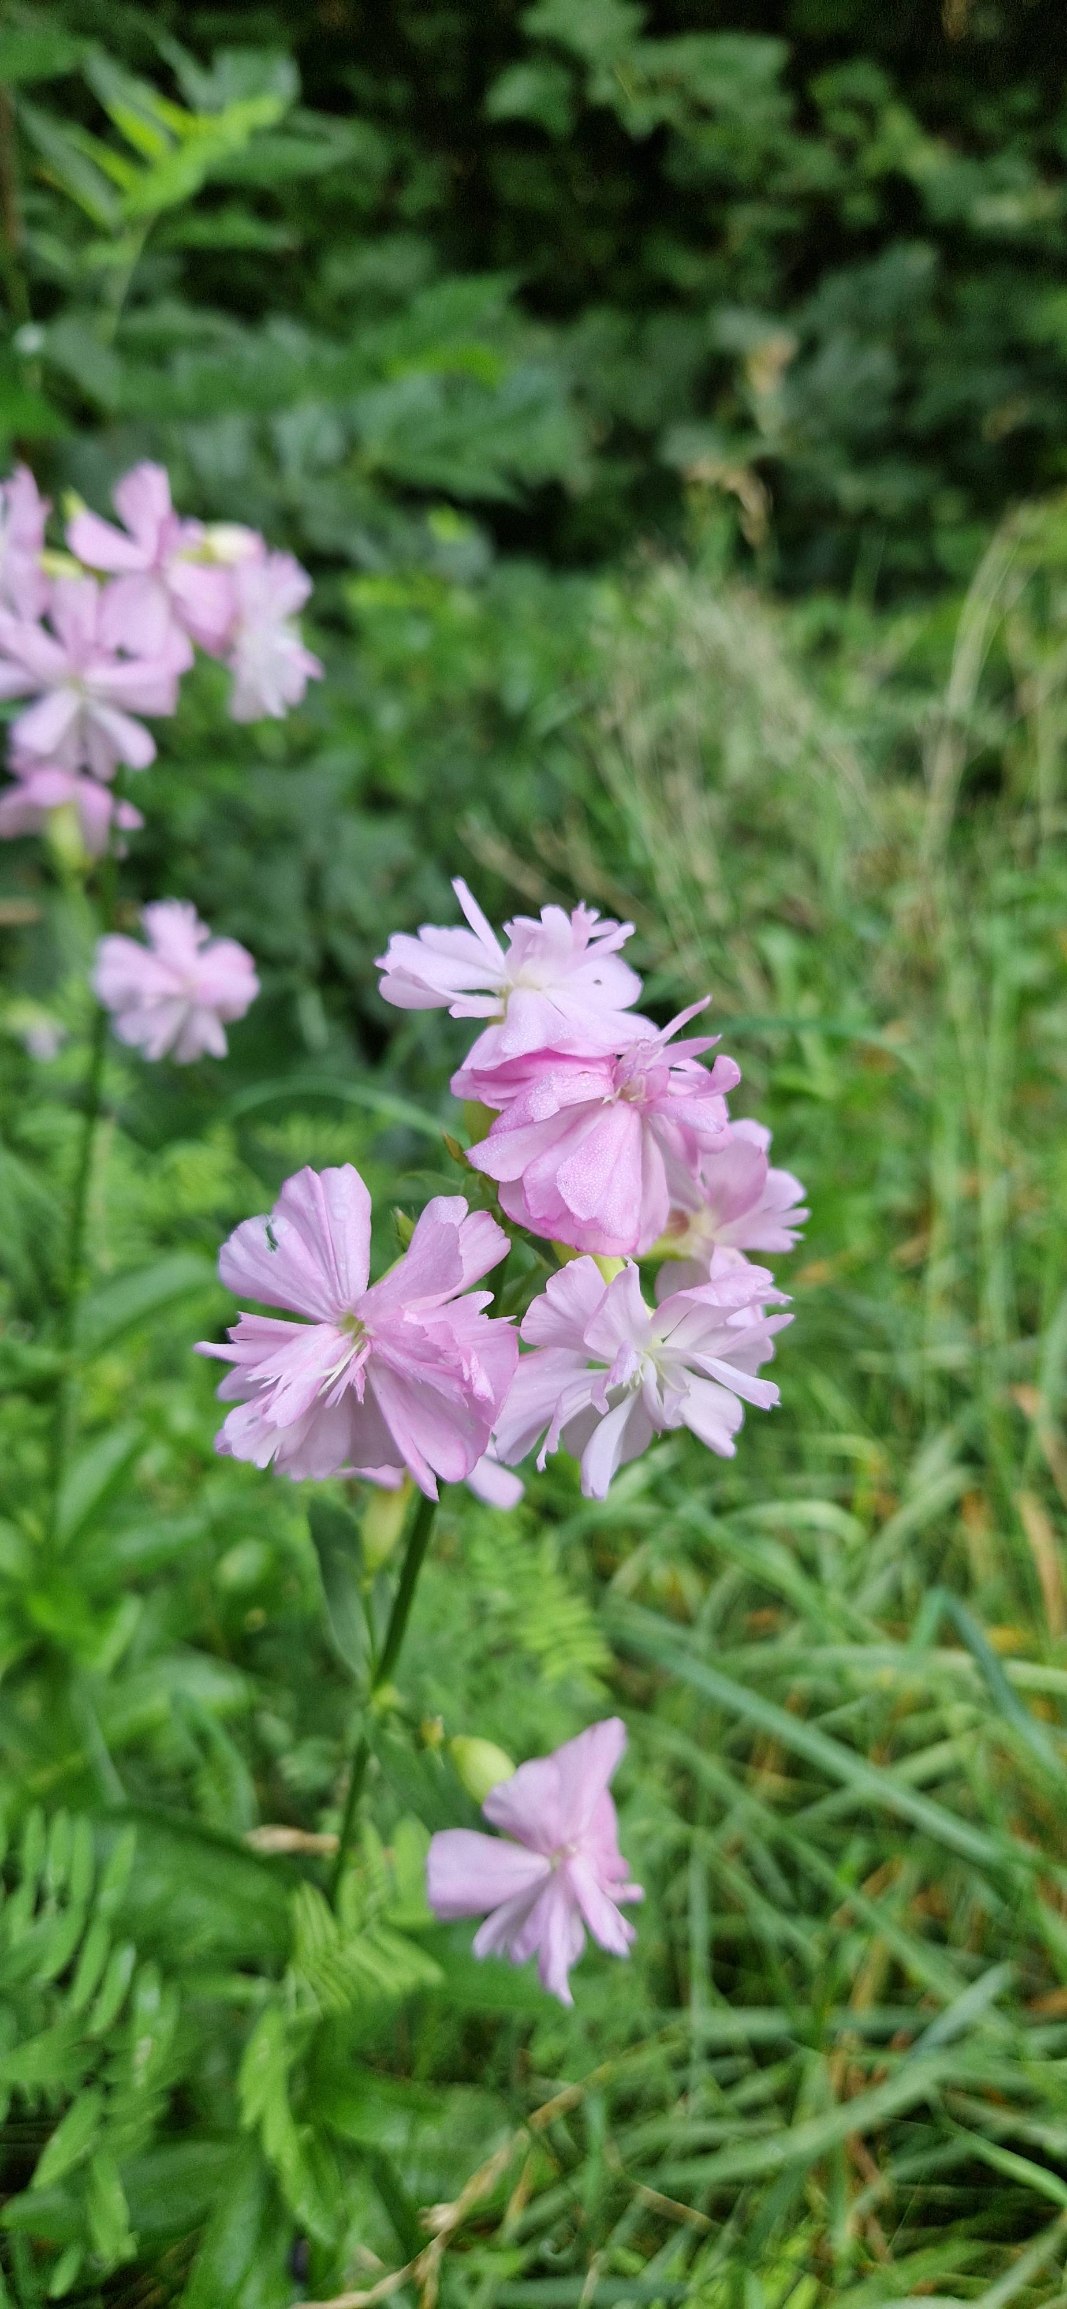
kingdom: Plantae
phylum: Tracheophyta
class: Magnoliopsida
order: Caryophyllales
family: Caryophyllaceae
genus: Saponaria
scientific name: Saponaria officinalis
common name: Sæbeurt
